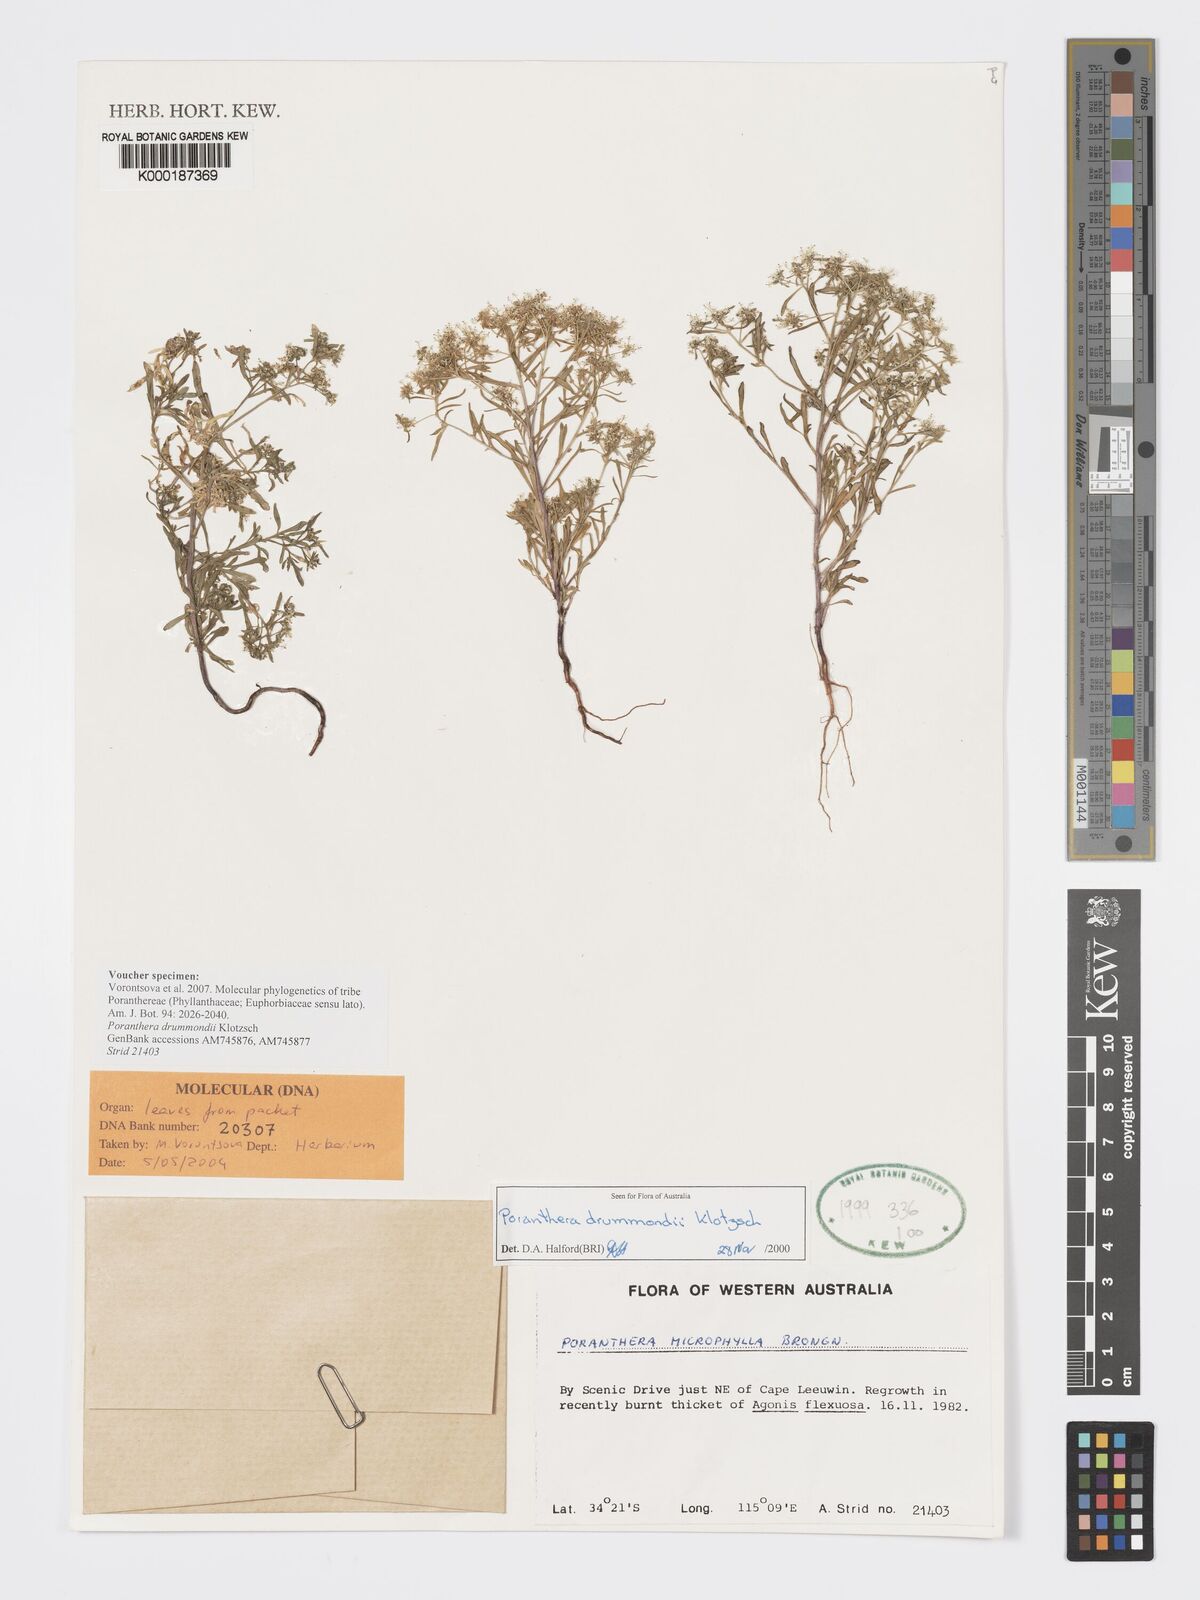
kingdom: Plantae
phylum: Tracheophyta
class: Magnoliopsida
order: Malpighiales
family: Phyllanthaceae
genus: Poranthera
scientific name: Poranthera drummondii
